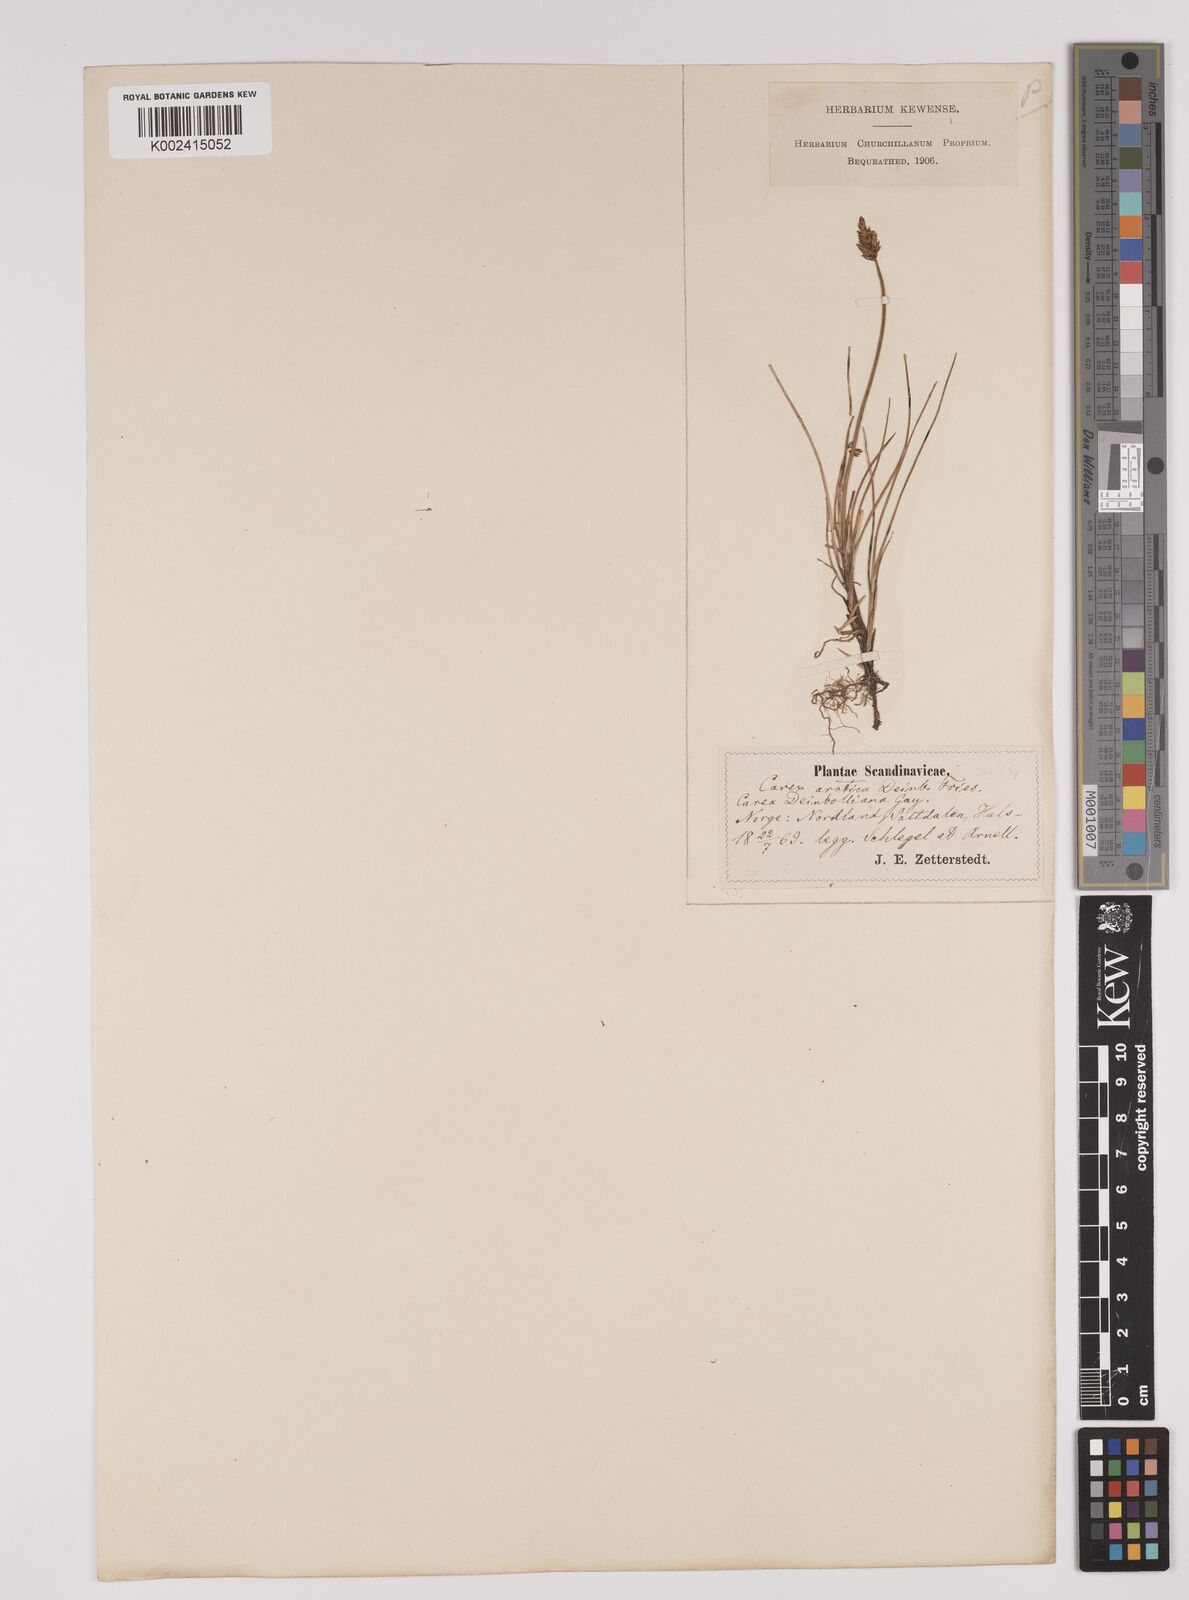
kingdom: Plantae
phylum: Tracheophyta
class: Liliopsida
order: Poales
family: Cyperaceae
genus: Carex
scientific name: Carex dioica
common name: Dioecious sedge
